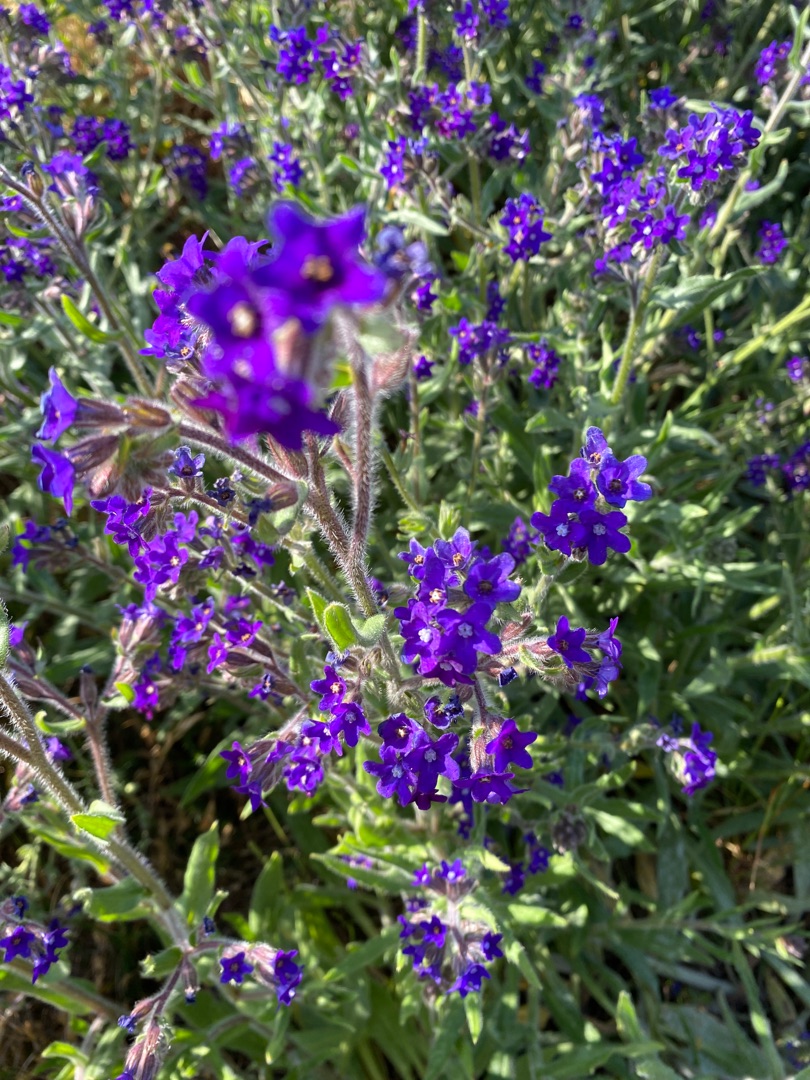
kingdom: Plantae
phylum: Tracheophyta
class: Magnoliopsida
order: Boraginales
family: Boraginaceae
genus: Anchusa
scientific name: Anchusa officinalis
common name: Læge-oksetunge
